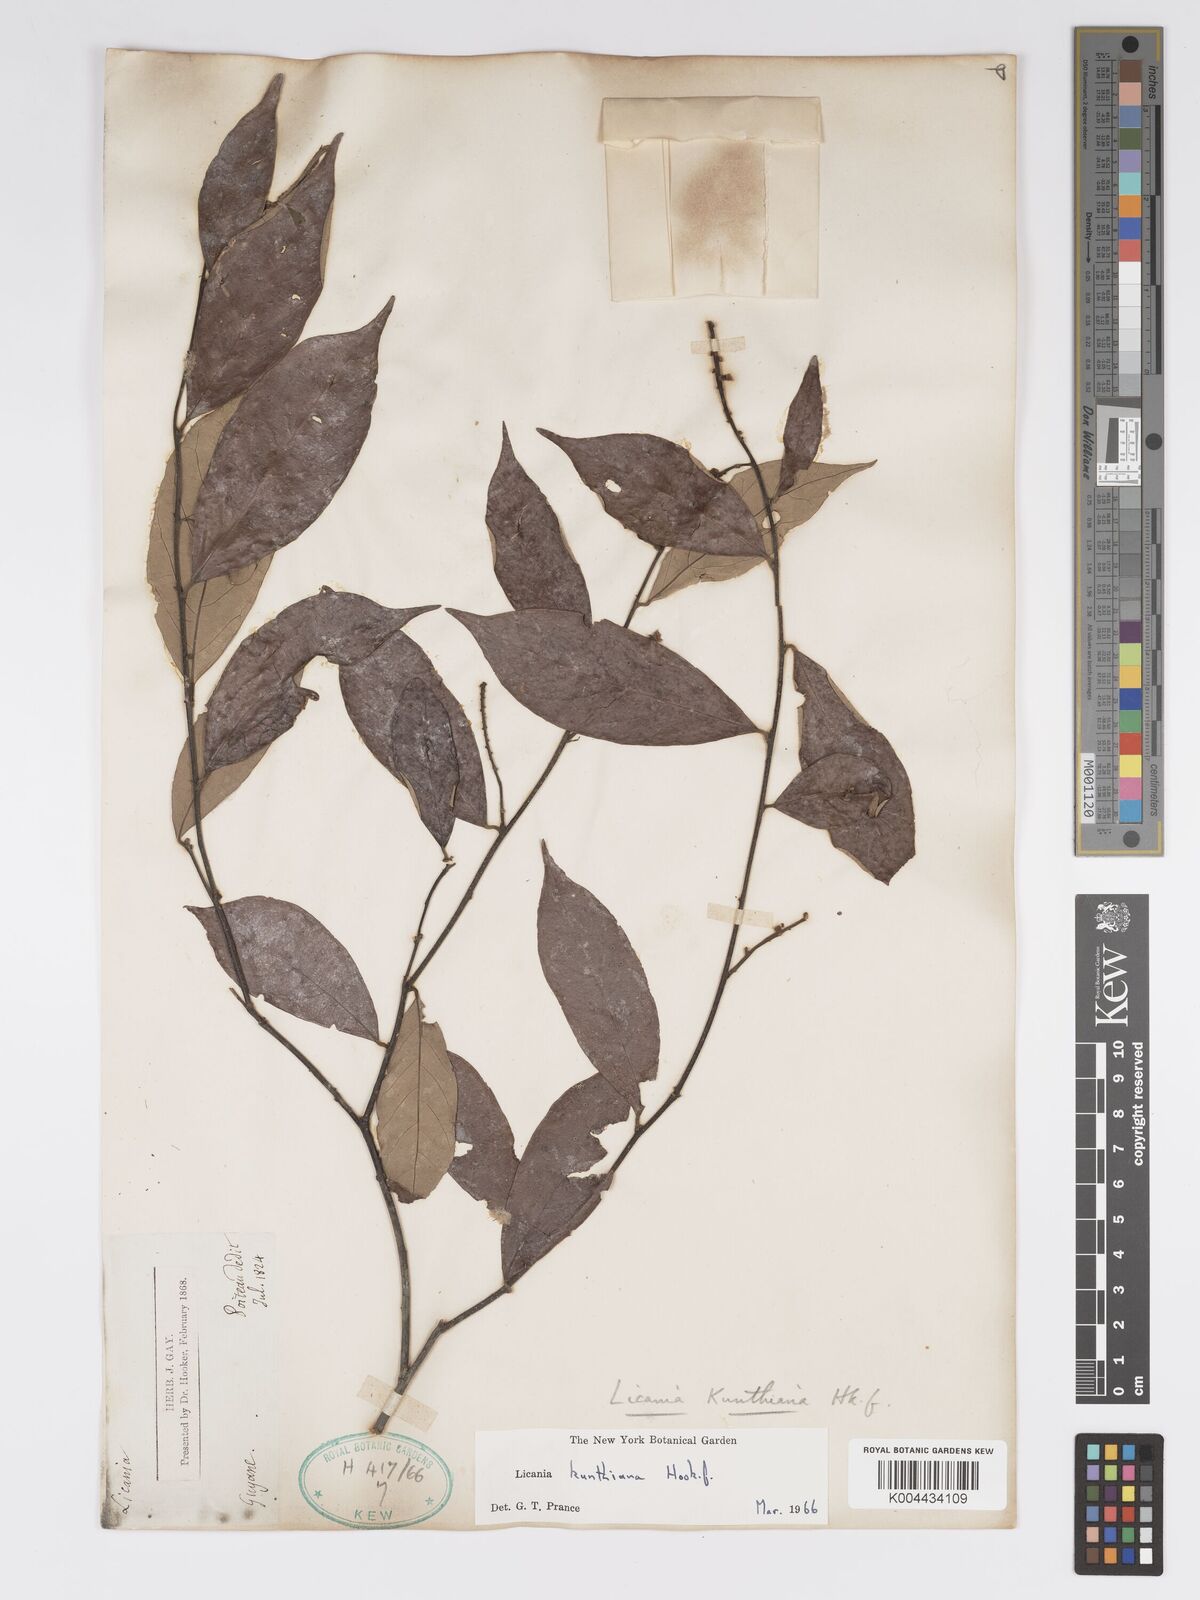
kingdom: Plantae
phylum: Tracheophyta
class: Magnoliopsida
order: Malpighiales
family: Chrysobalanaceae
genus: Licania
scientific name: Licania kunthiana
